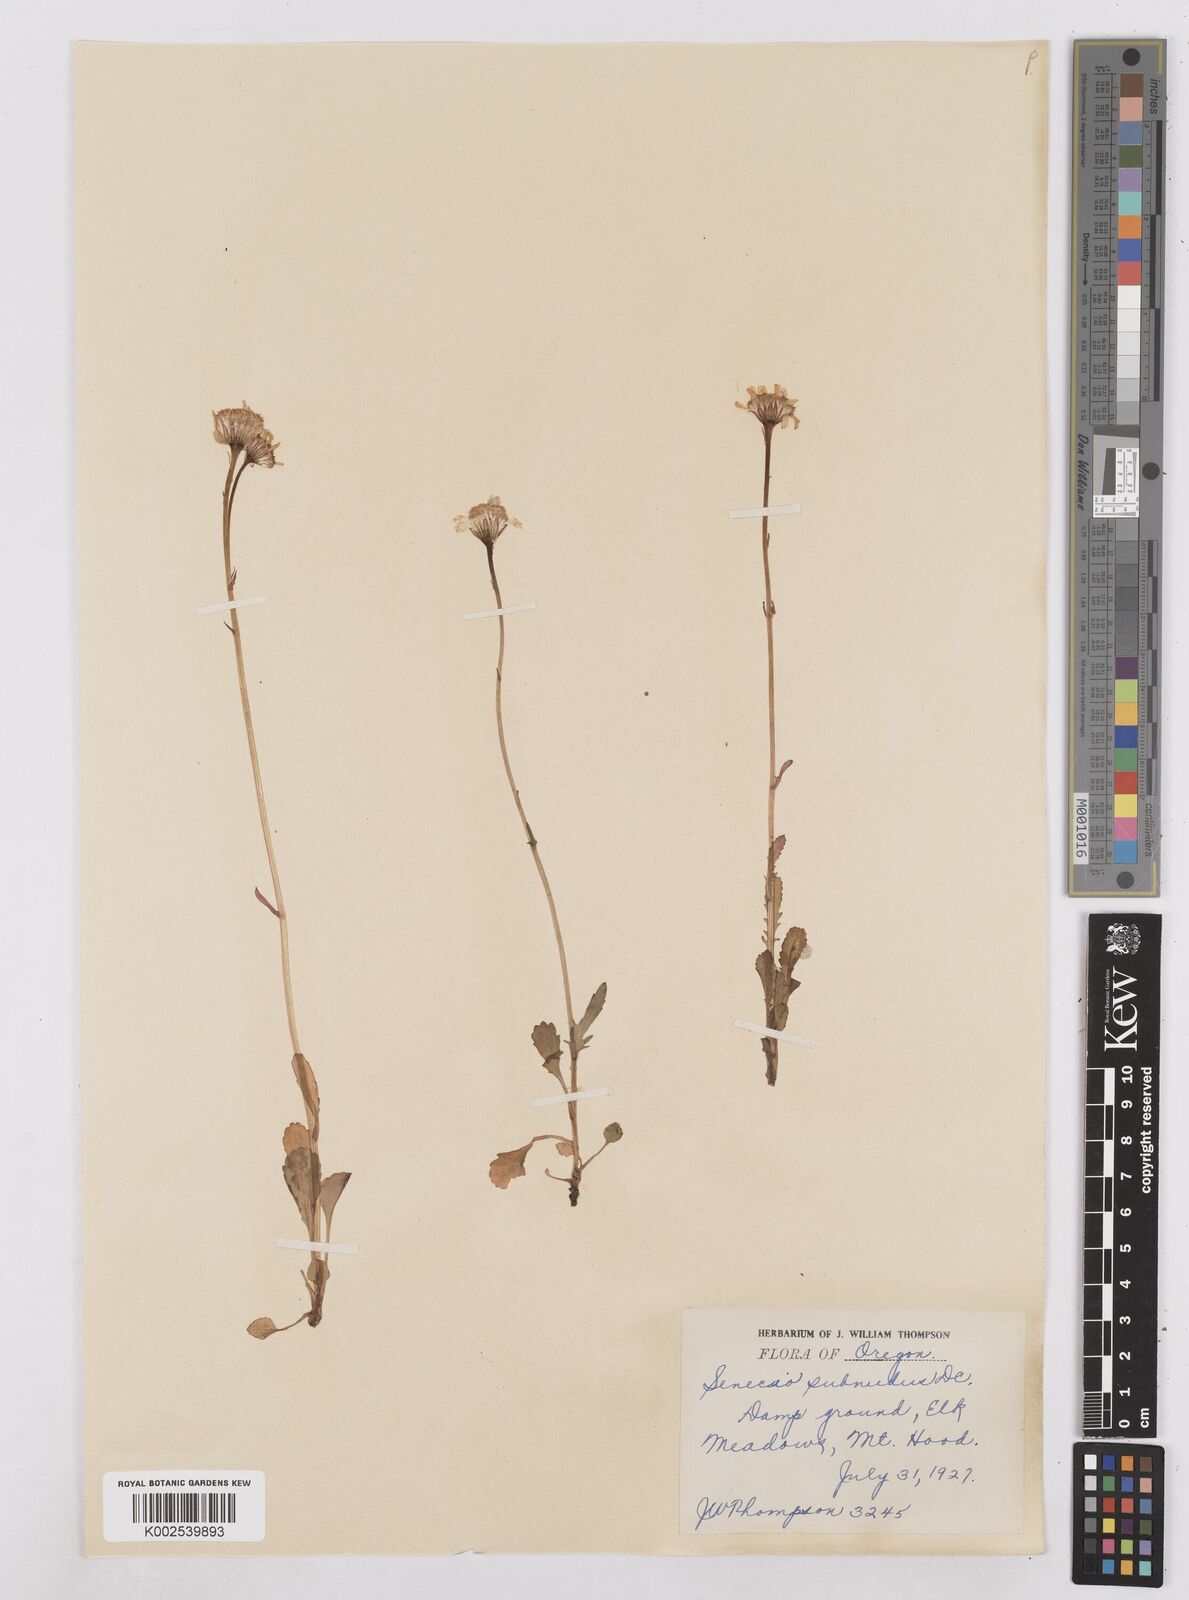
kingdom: Plantae
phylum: Tracheophyta
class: Magnoliopsida
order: Asterales
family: Asteraceae
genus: Packera
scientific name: Packera aurea
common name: Golden groundsel
